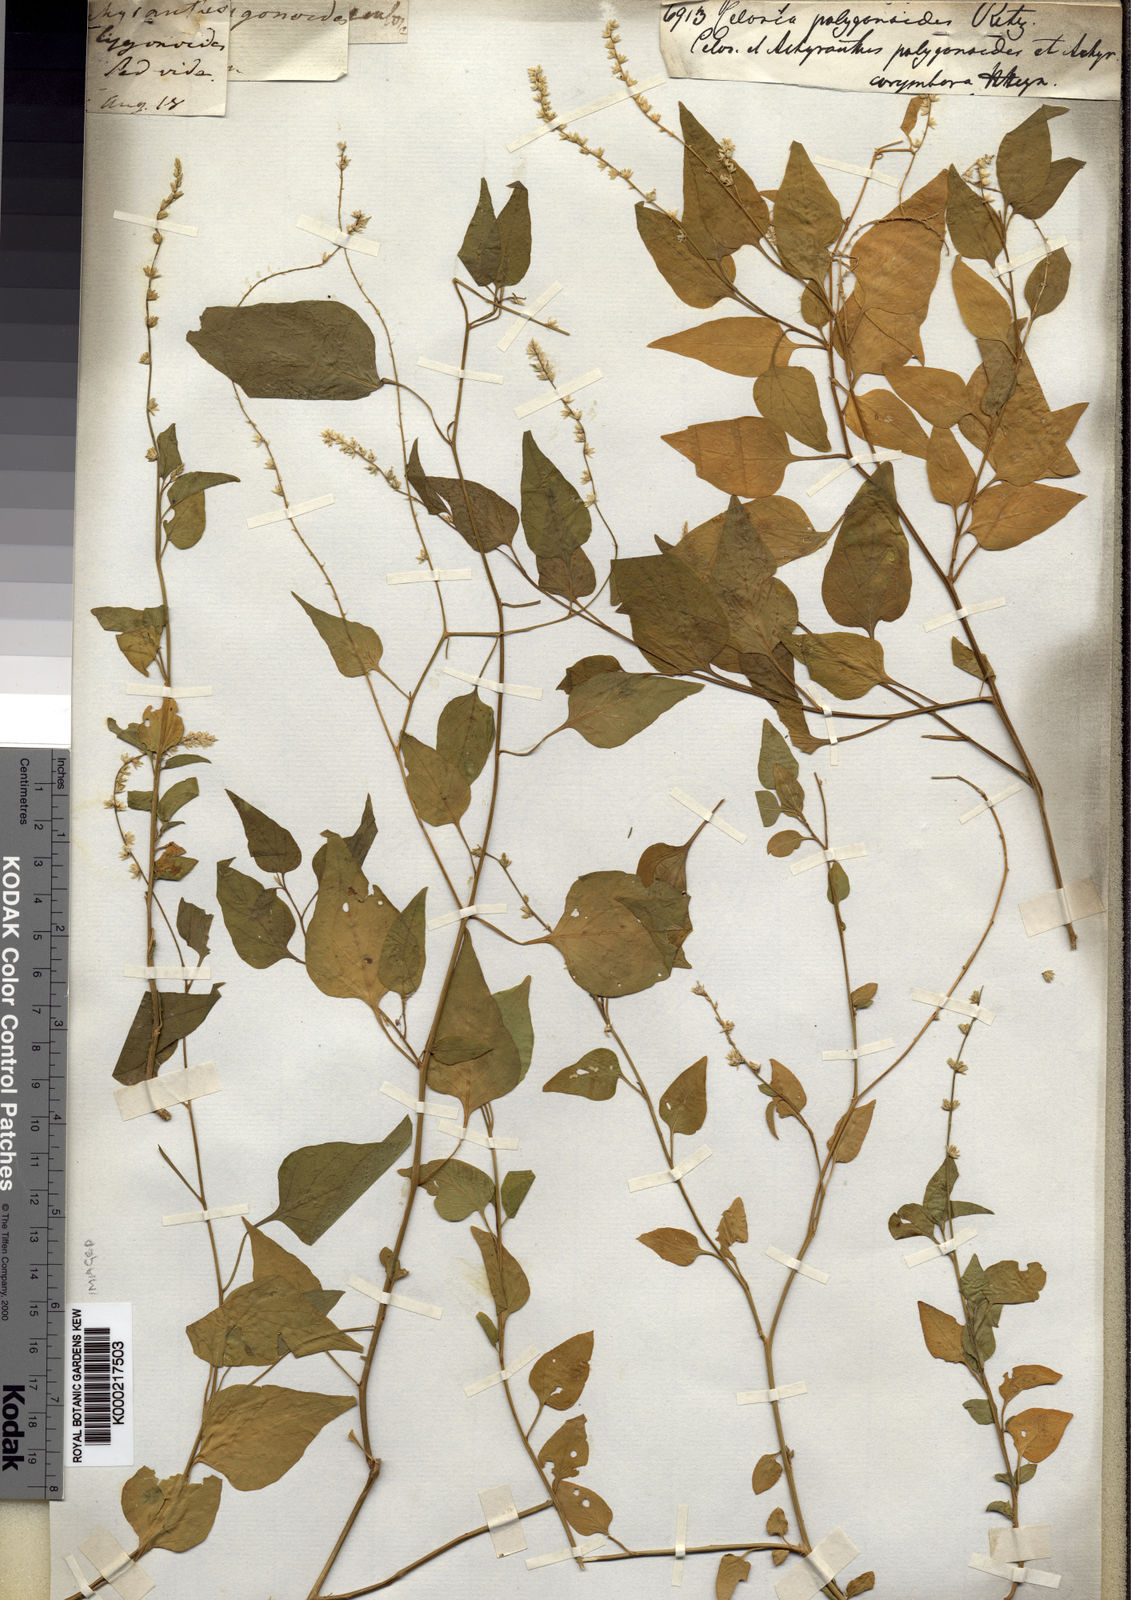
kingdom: Plantae
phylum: Tracheophyta
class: Magnoliopsida
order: Caryophyllales
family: Amaranthaceae
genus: Celosia
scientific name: Celosia pulchella
